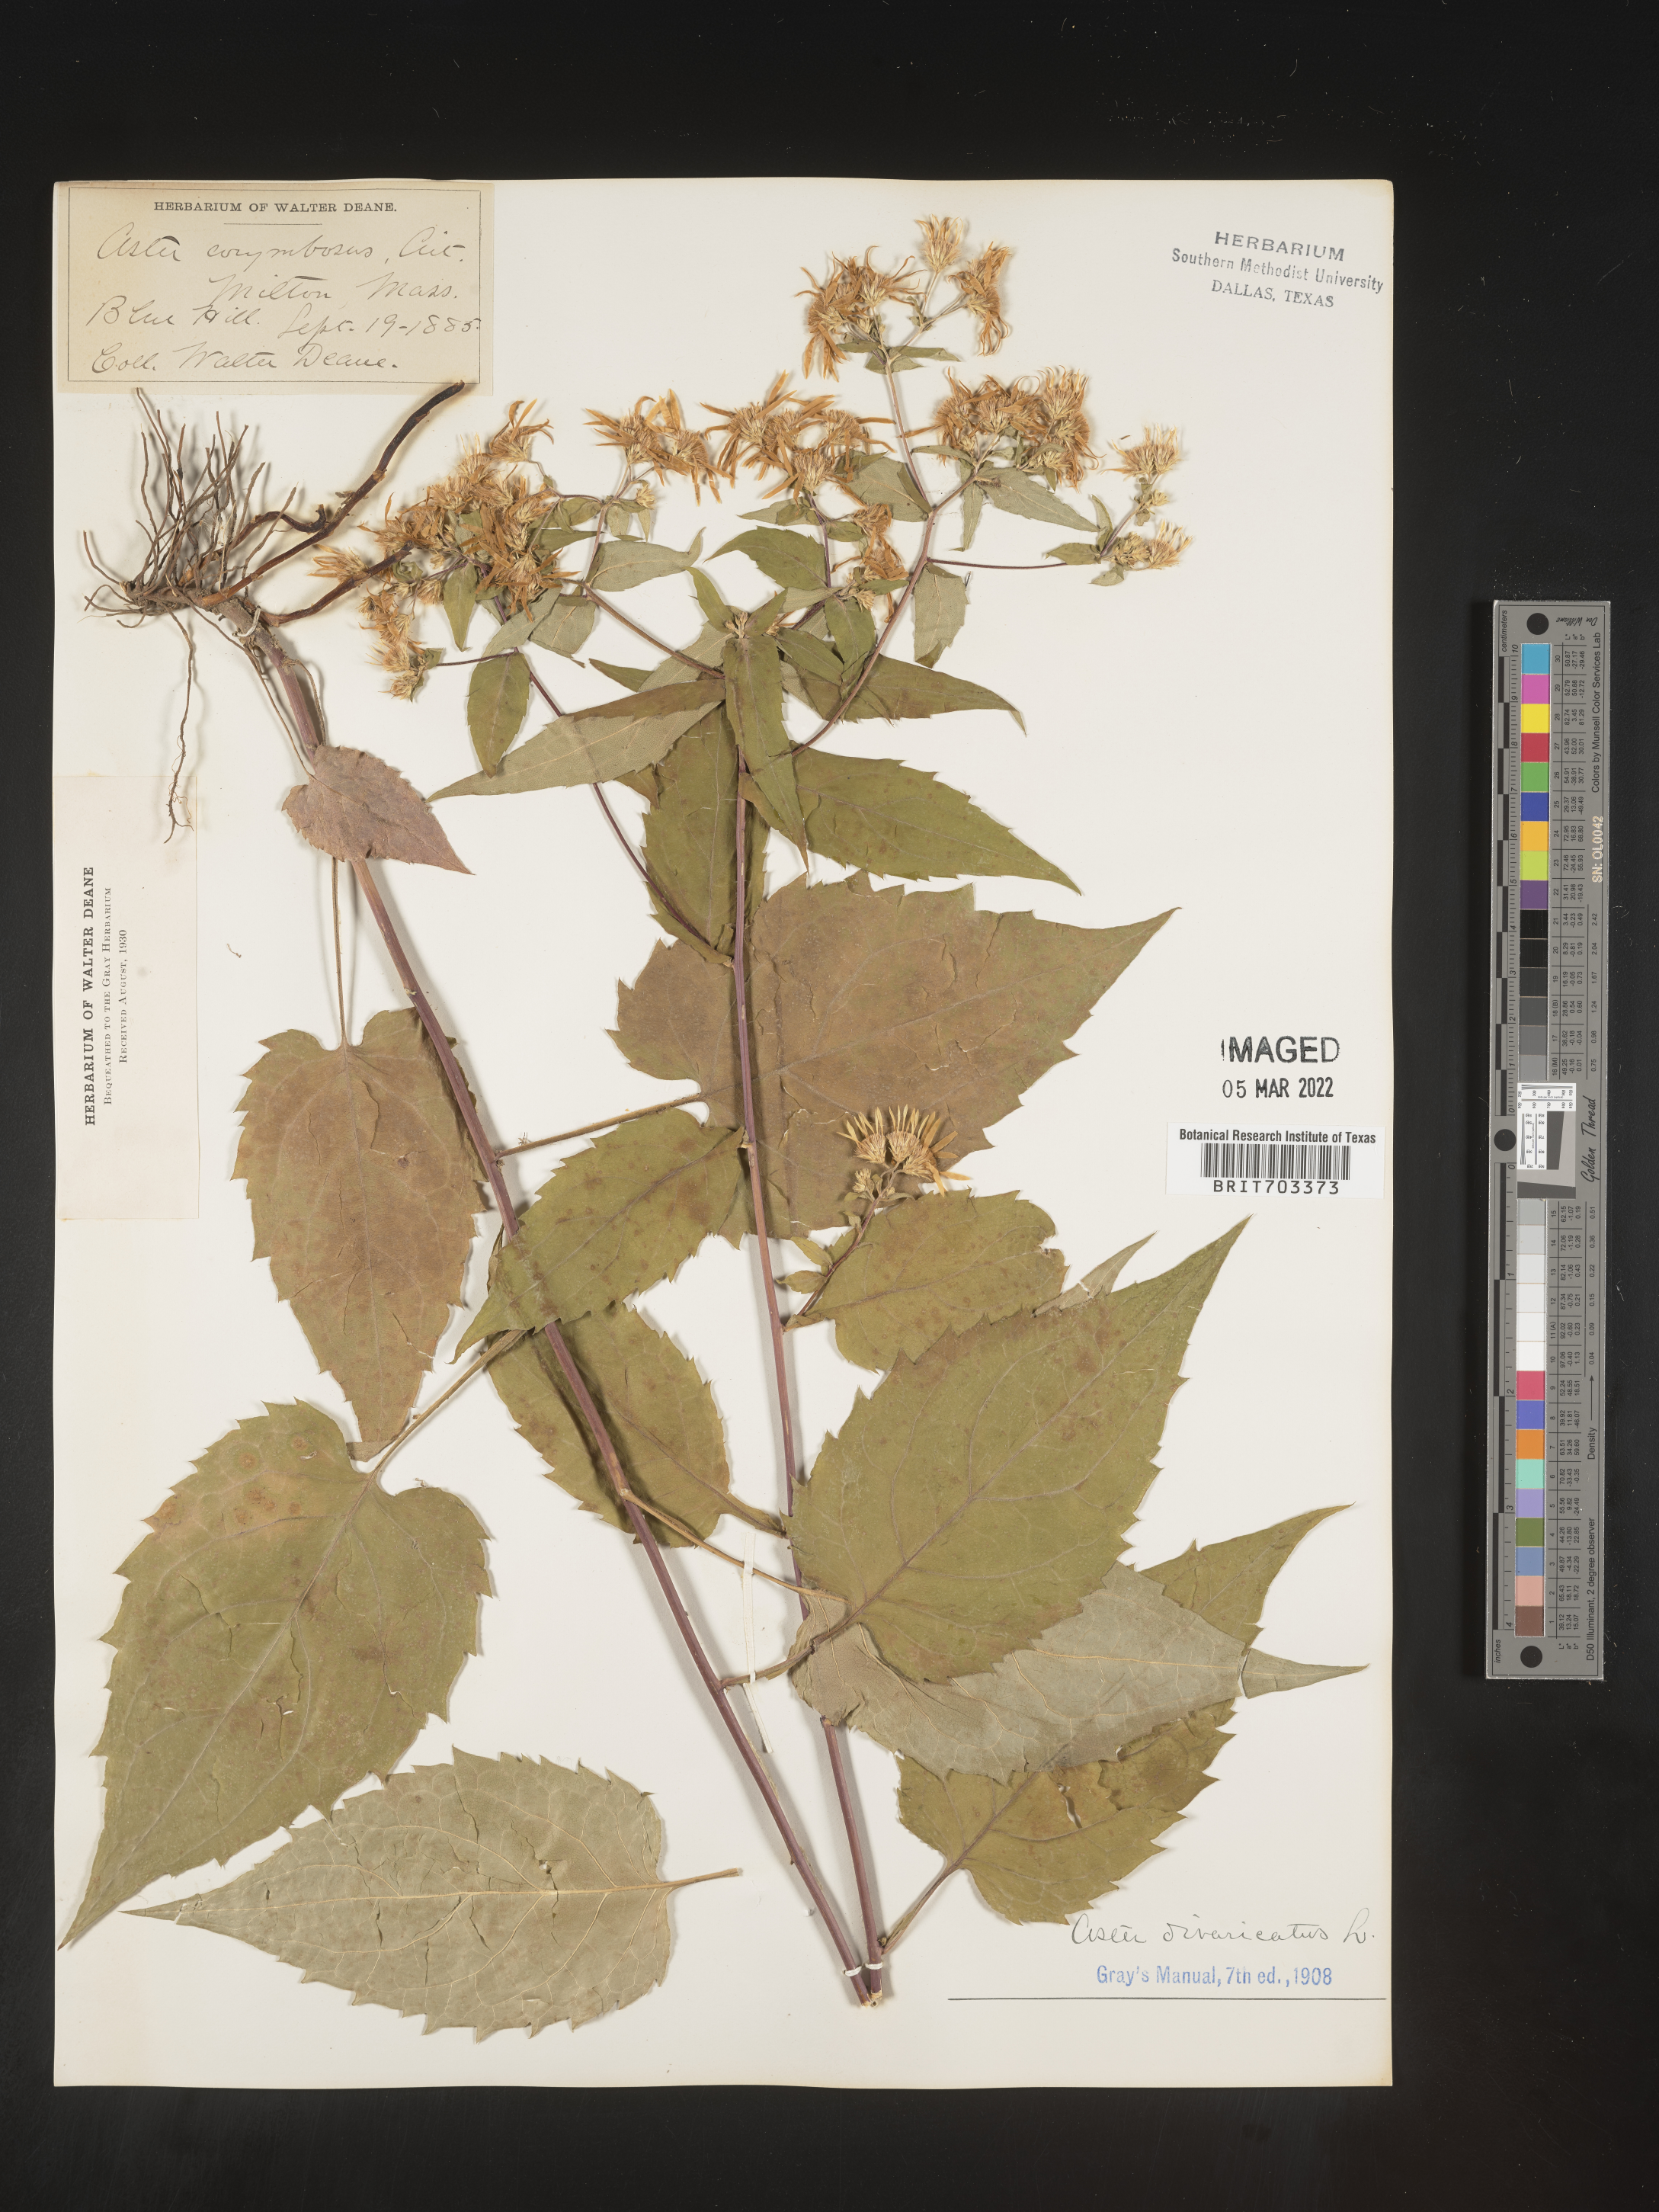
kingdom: Plantae
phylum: Tracheophyta
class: Magnoliopsida
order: Asterales
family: Asteraceae
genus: Eurybia
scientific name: Eurybia divaricata
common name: White wood aster
